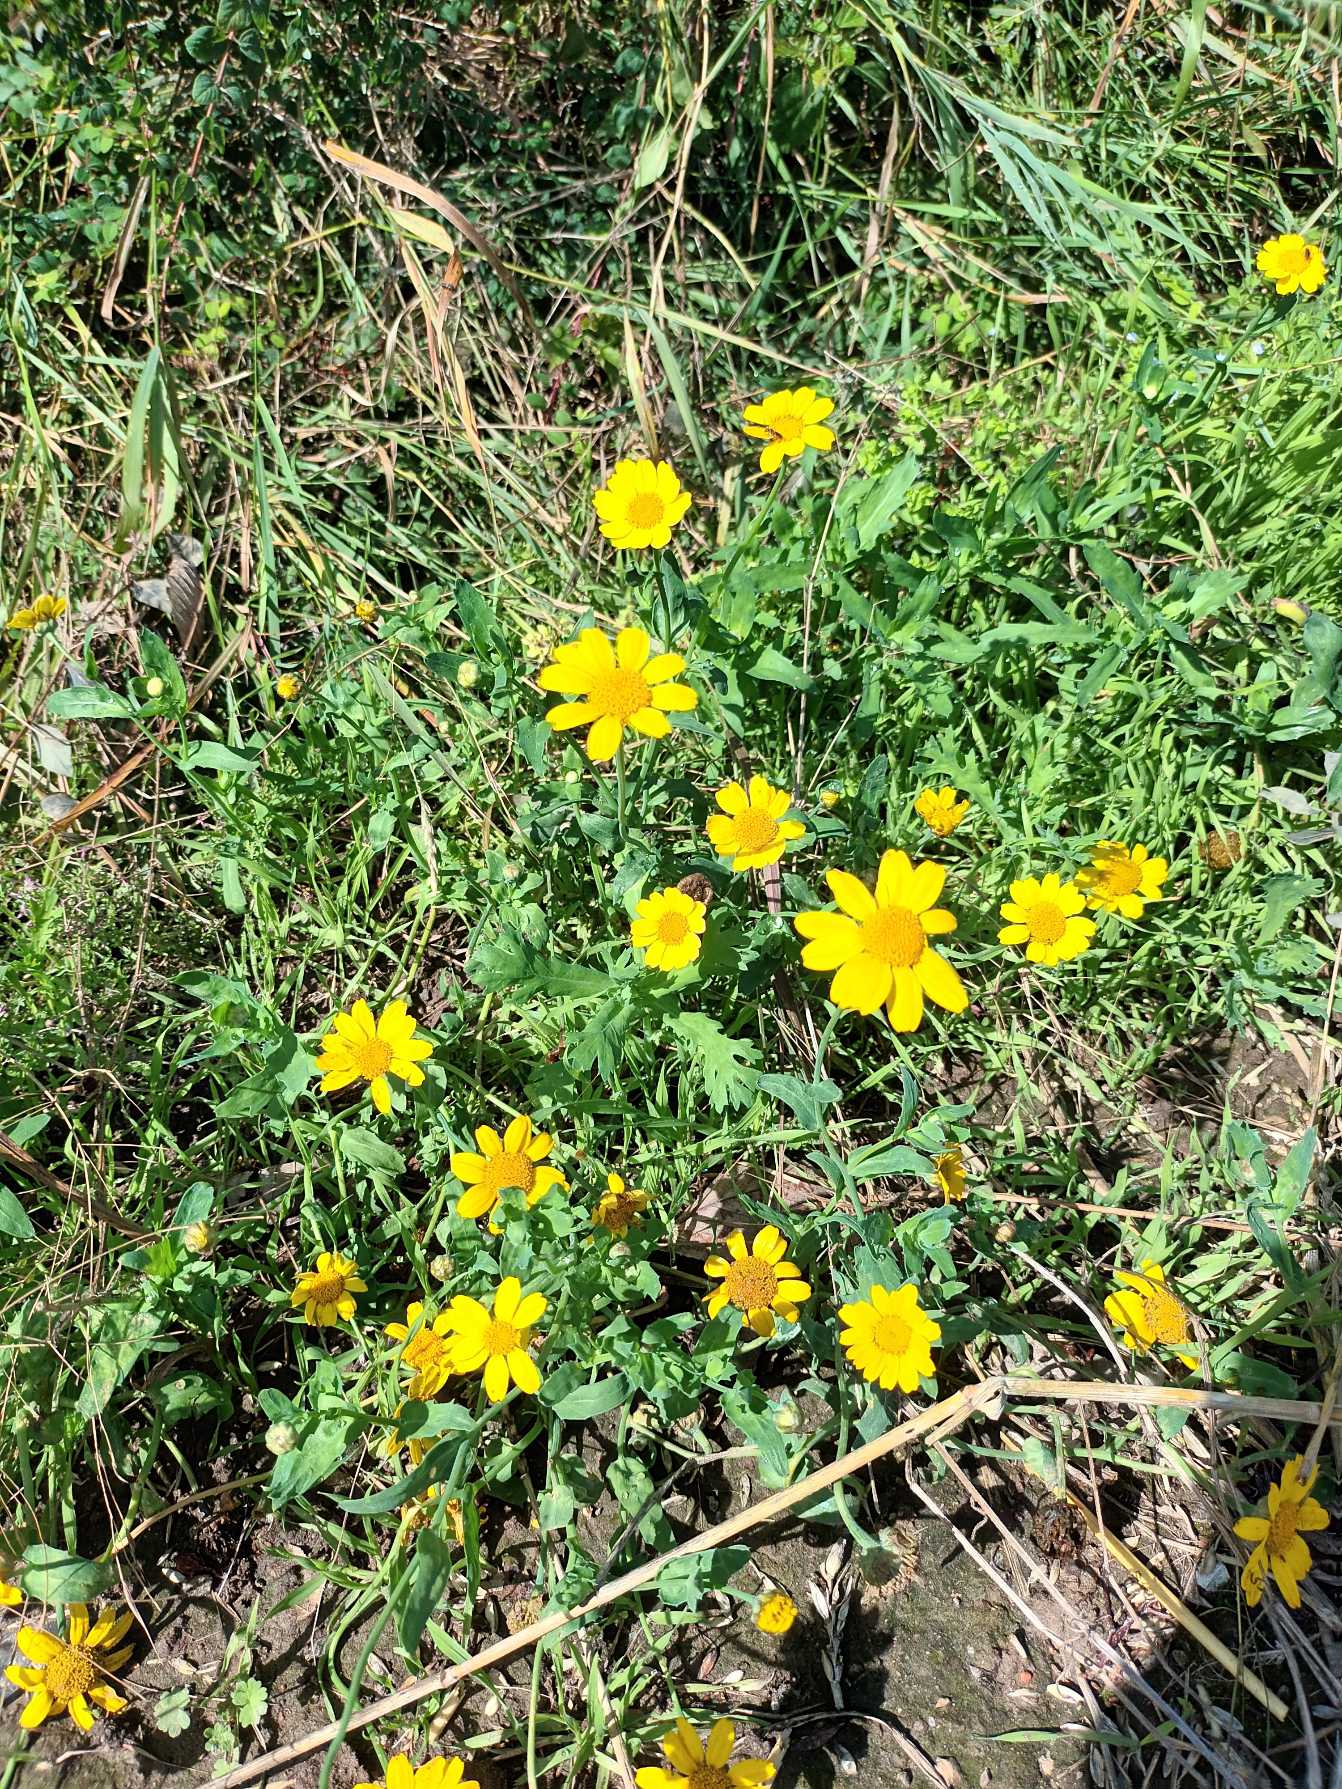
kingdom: Plantae
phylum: Tracheophyta
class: Magnoliopsida
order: Asterales
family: Asteraceae
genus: Glebionis
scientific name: Glebionis segetum
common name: Gul okseøje
